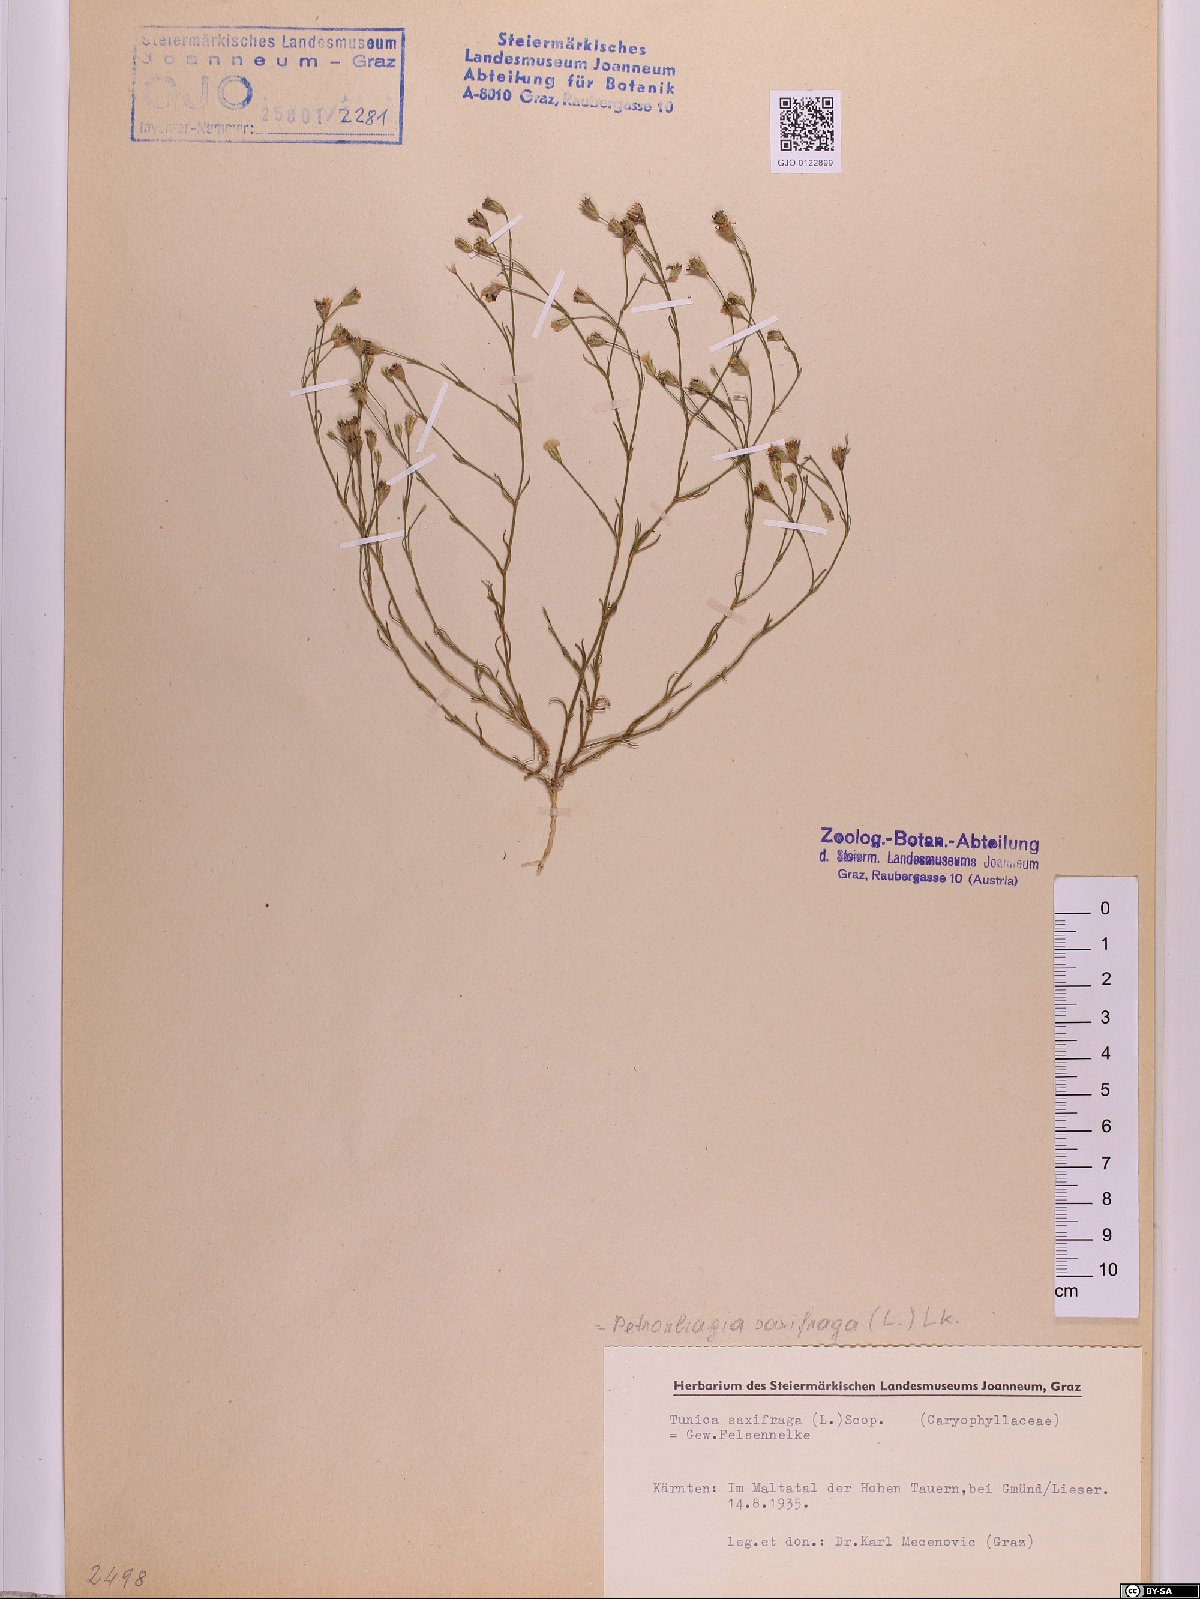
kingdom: Plantae
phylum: Tracheophyta
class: Magnoliopsida
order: Caryophyllales
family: Caryophyllaceae
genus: Petrorhagia
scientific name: Petrorhagia saxifraga
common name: Tunicflower
